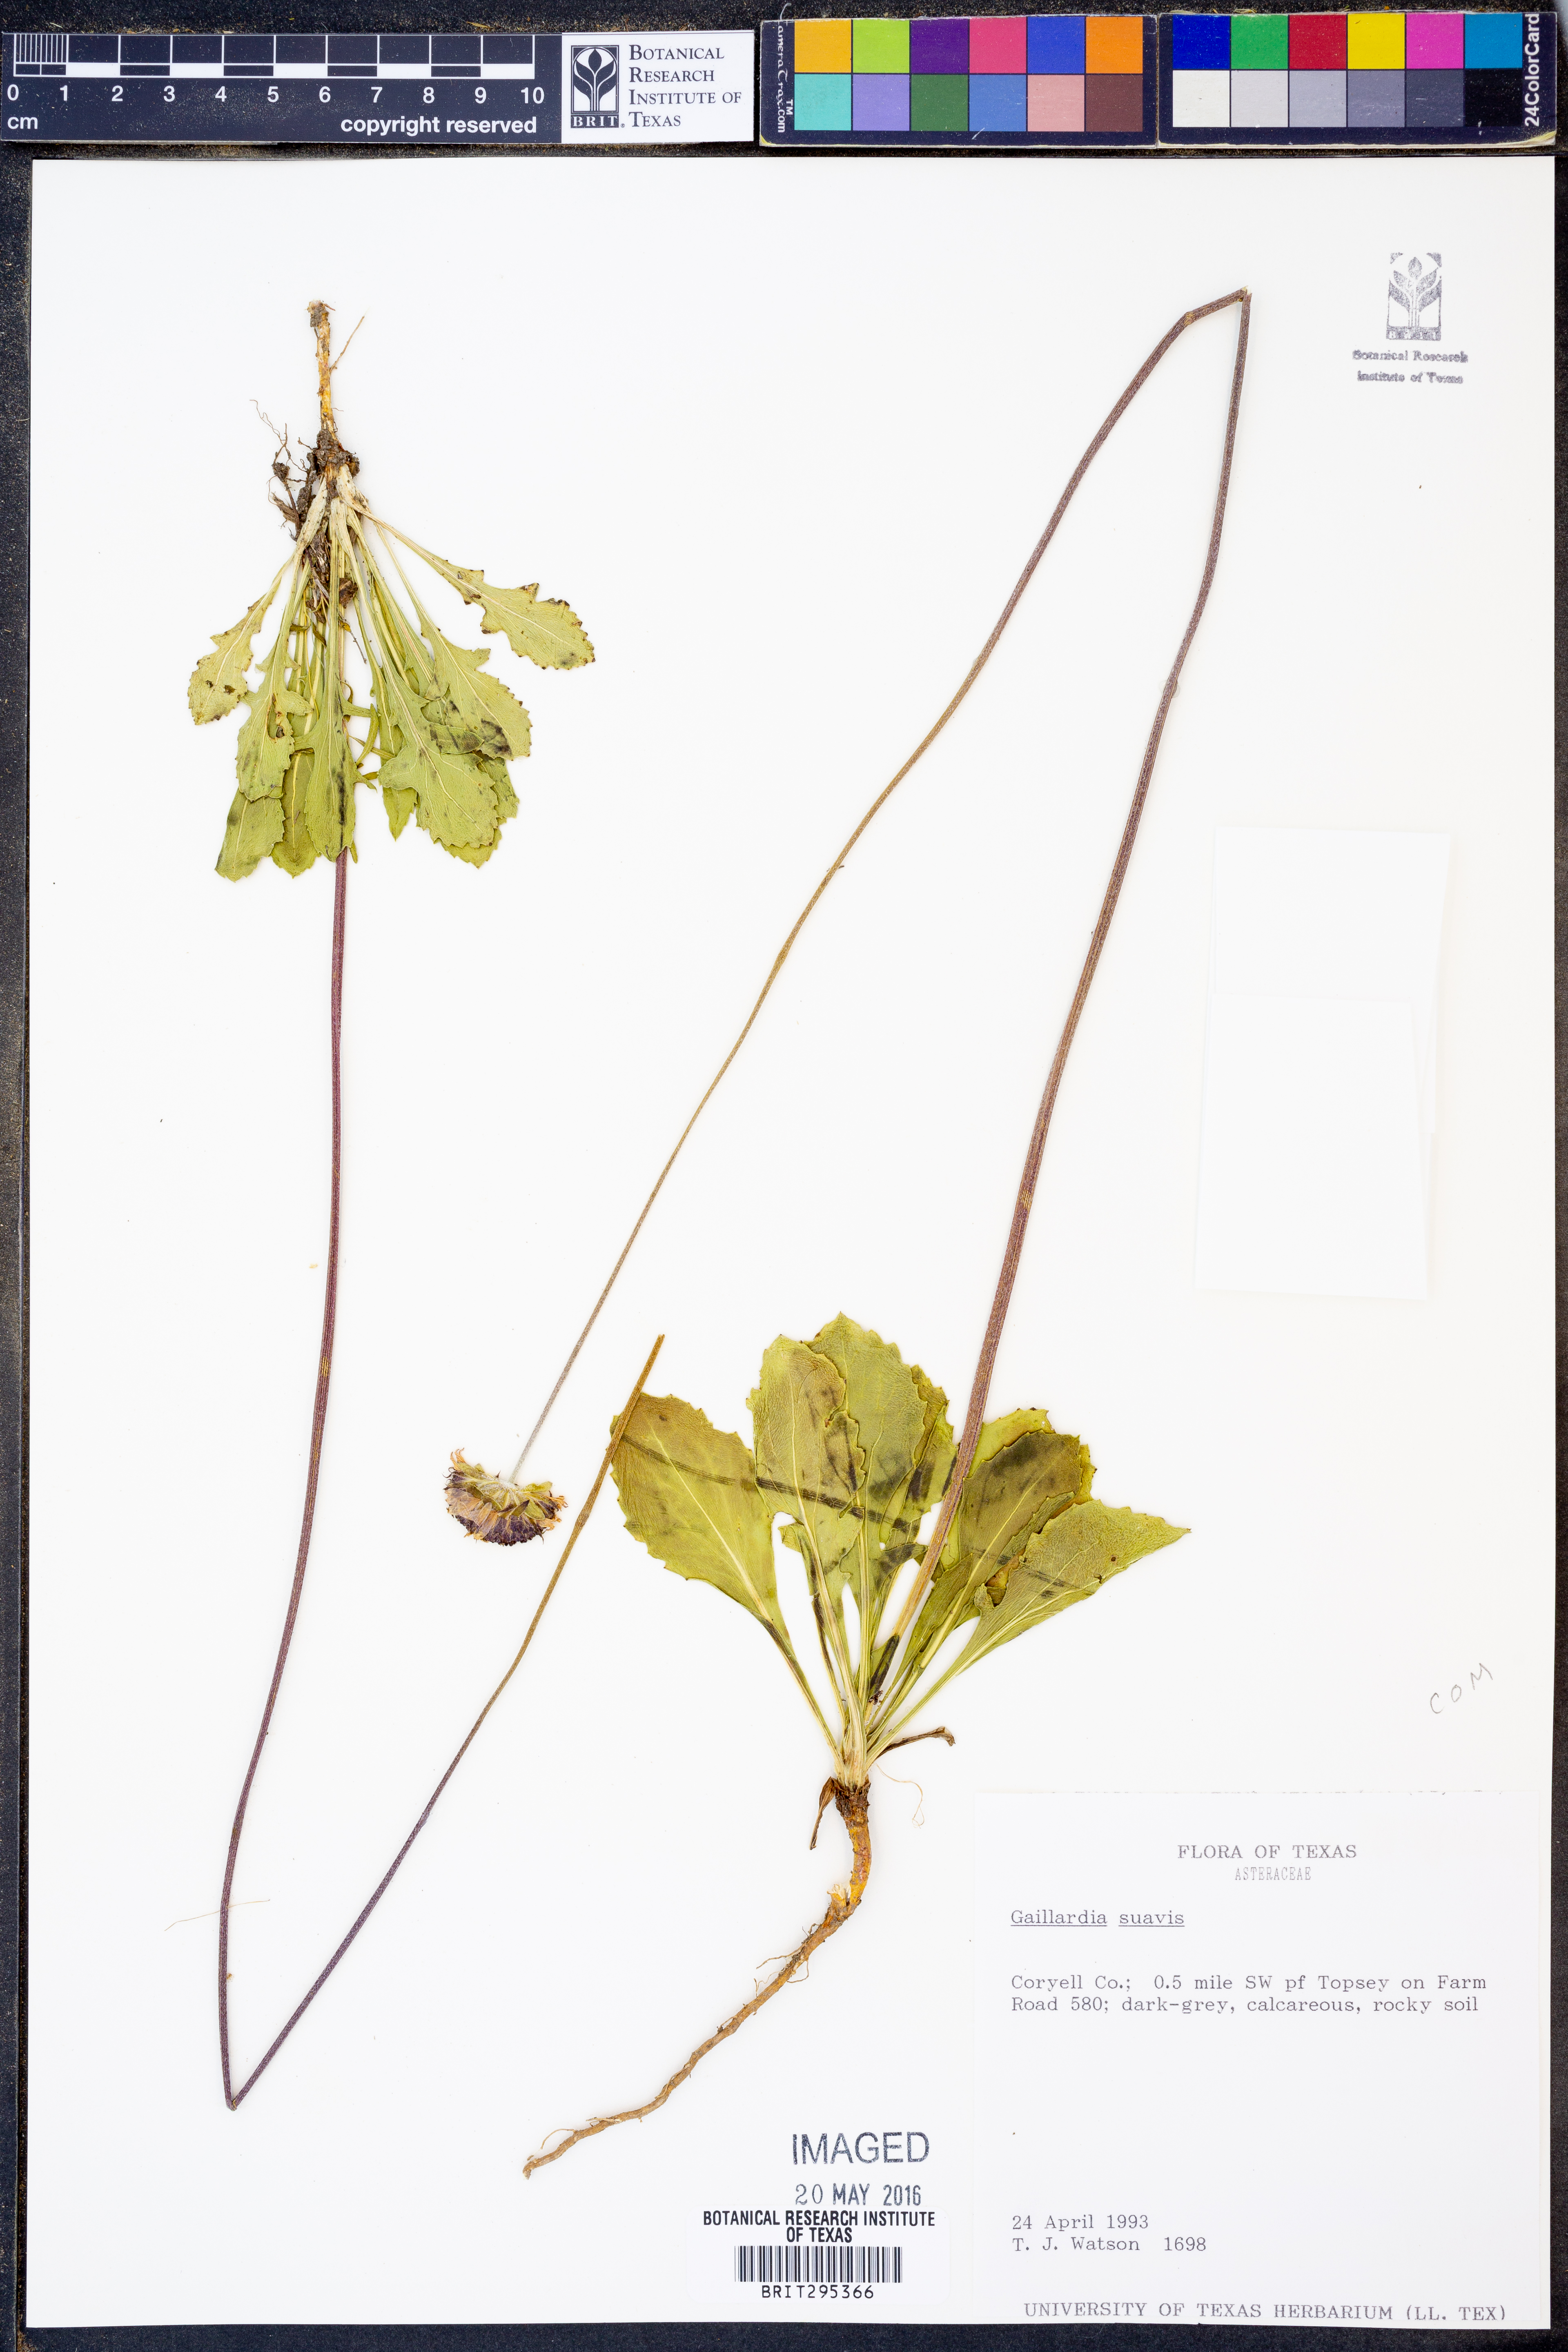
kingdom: Plantae
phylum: Tracheophyta
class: Magnoliopsida
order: Asterales
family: Asteraceae
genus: Gaillardia
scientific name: Gaillardia suavis
